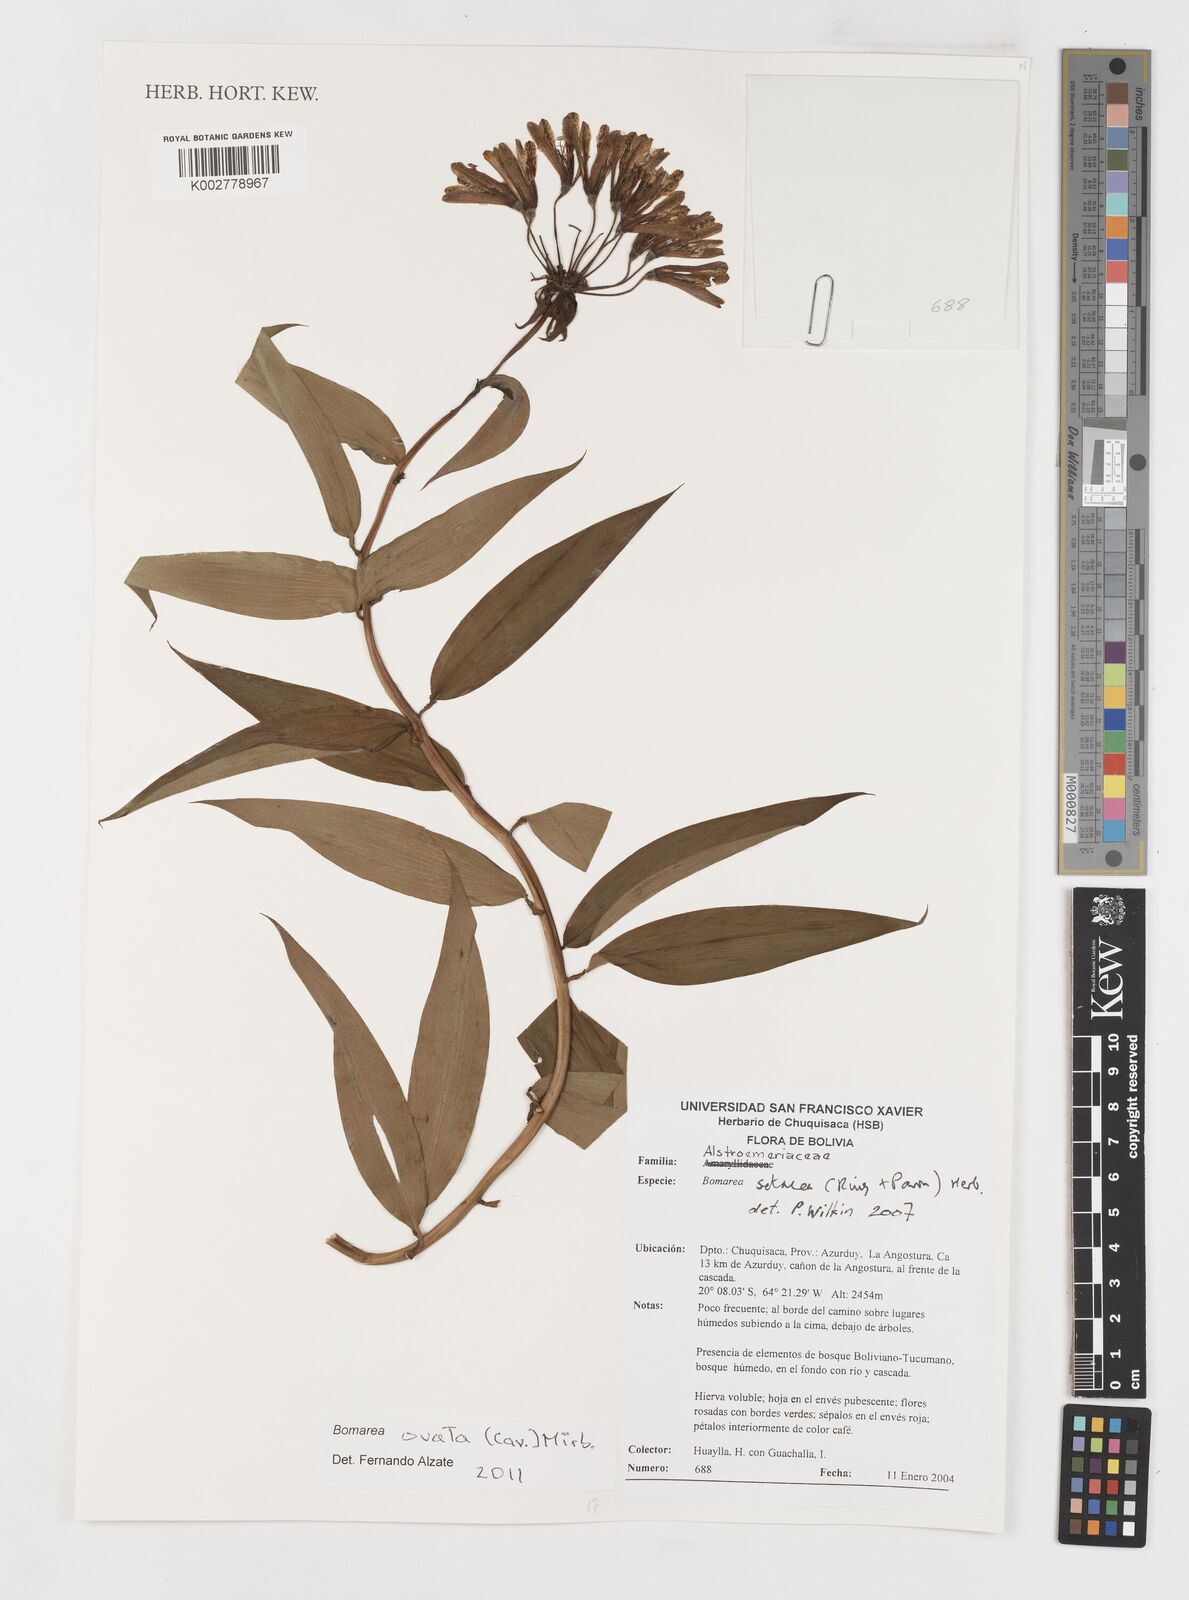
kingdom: Plantae
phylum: Tracheophyta
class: Liliopsida
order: Liliales
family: Alstroemeriaceae
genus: Bomarea
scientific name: Bomarea ovata
